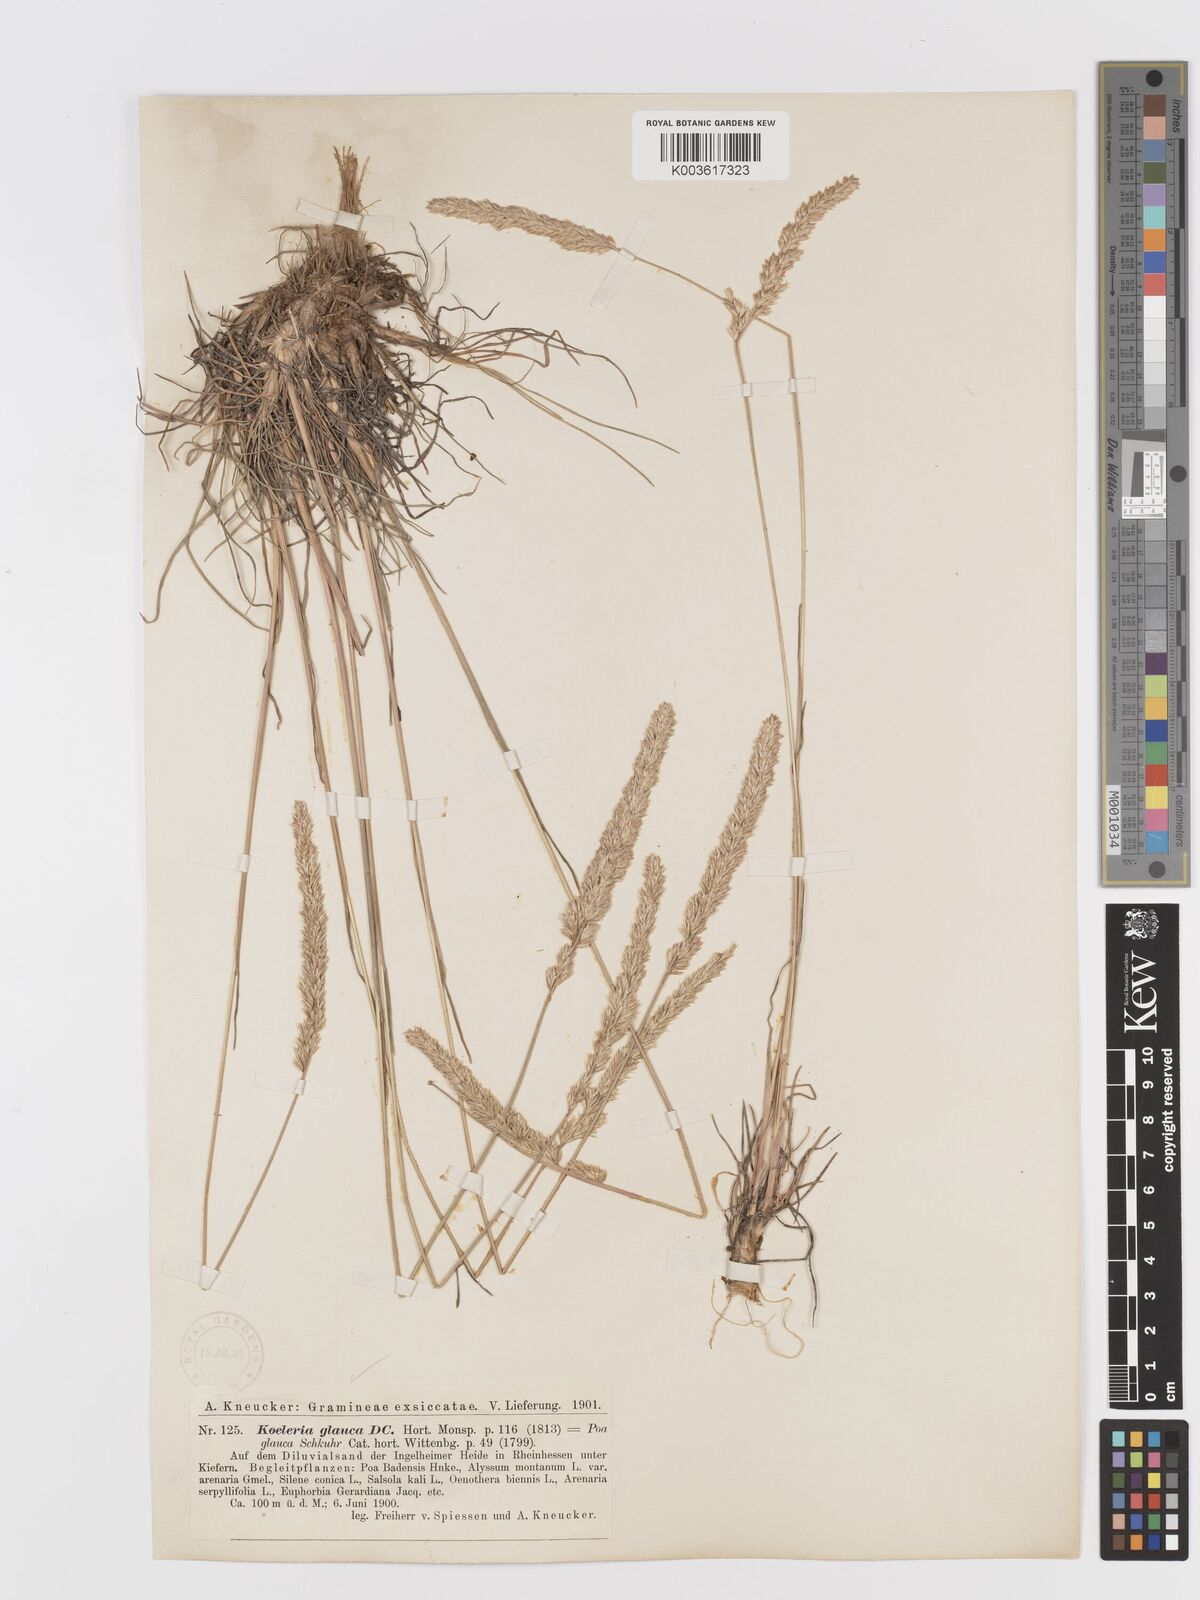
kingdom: Plantae
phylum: Tracheophyta
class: Liliopsida
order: Poales
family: Poaceae
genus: Koeleria
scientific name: Koeleria glauca
